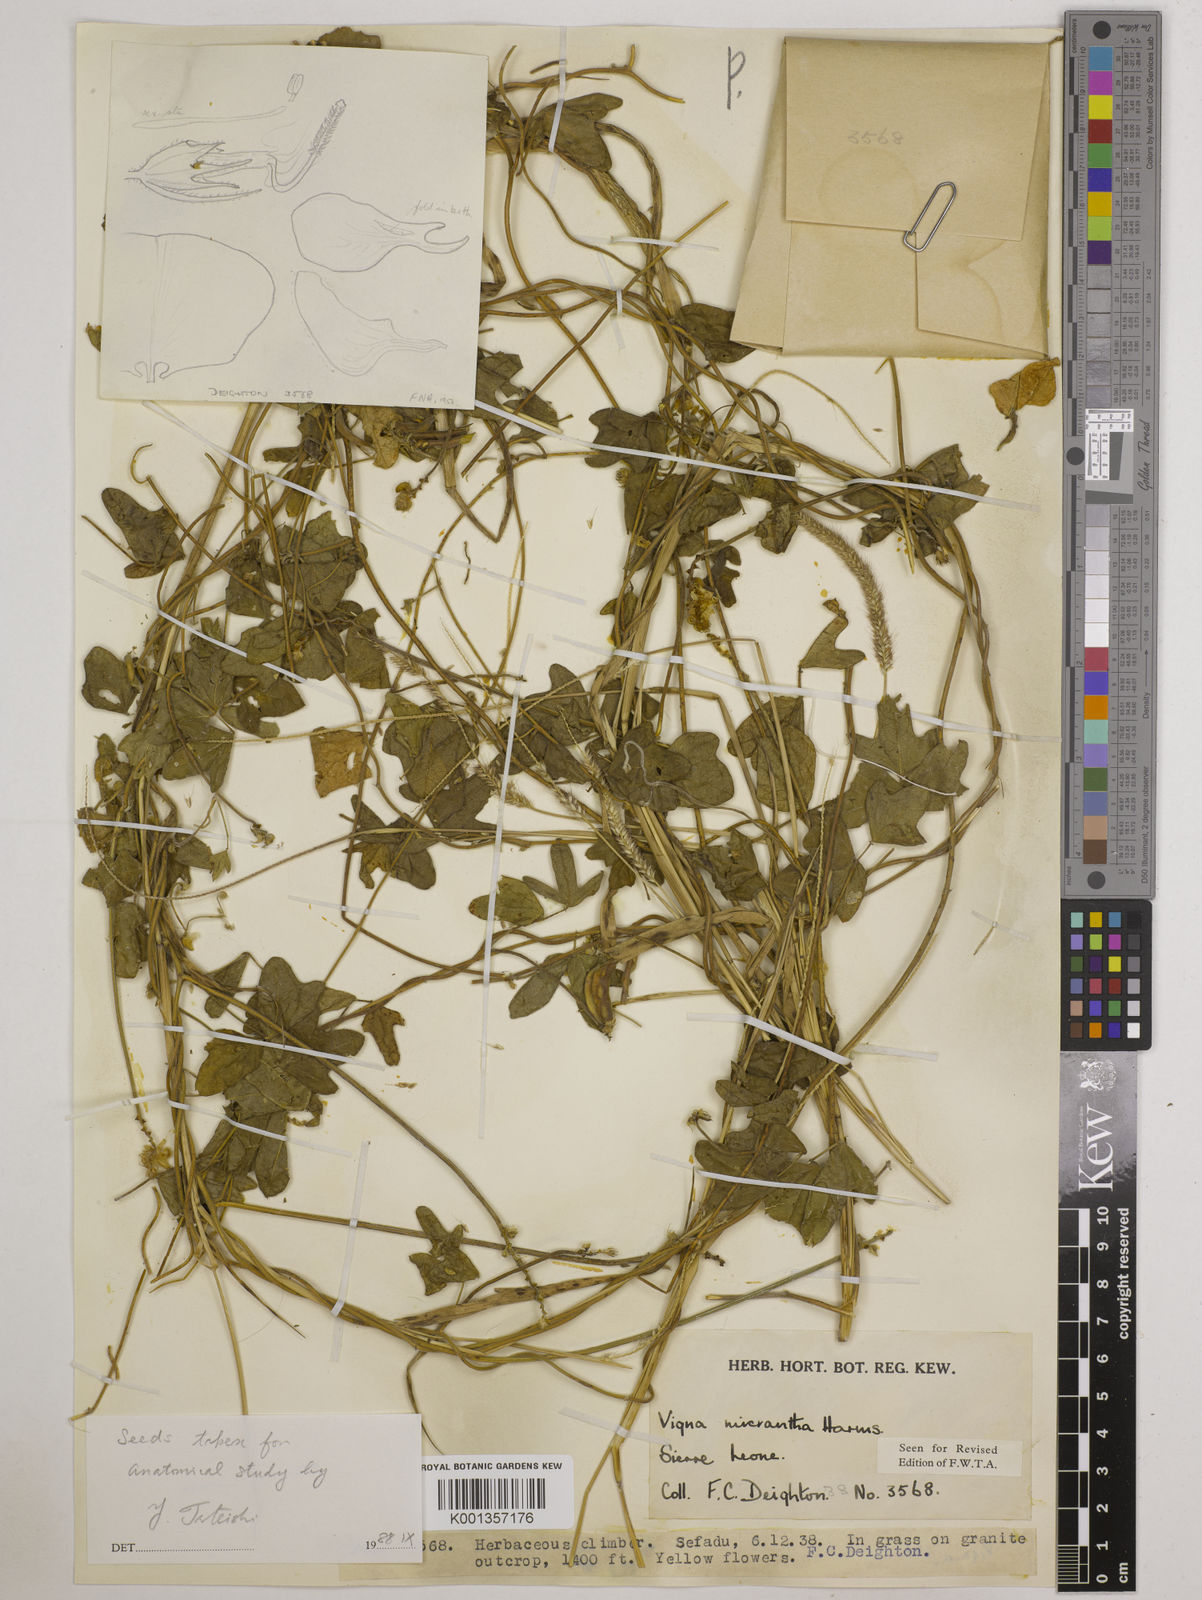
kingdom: Plantae
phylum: Tracheophyta
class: Magnoliopsida
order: Fabales
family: Fabaceae
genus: Vigna
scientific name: Vigna comosa
